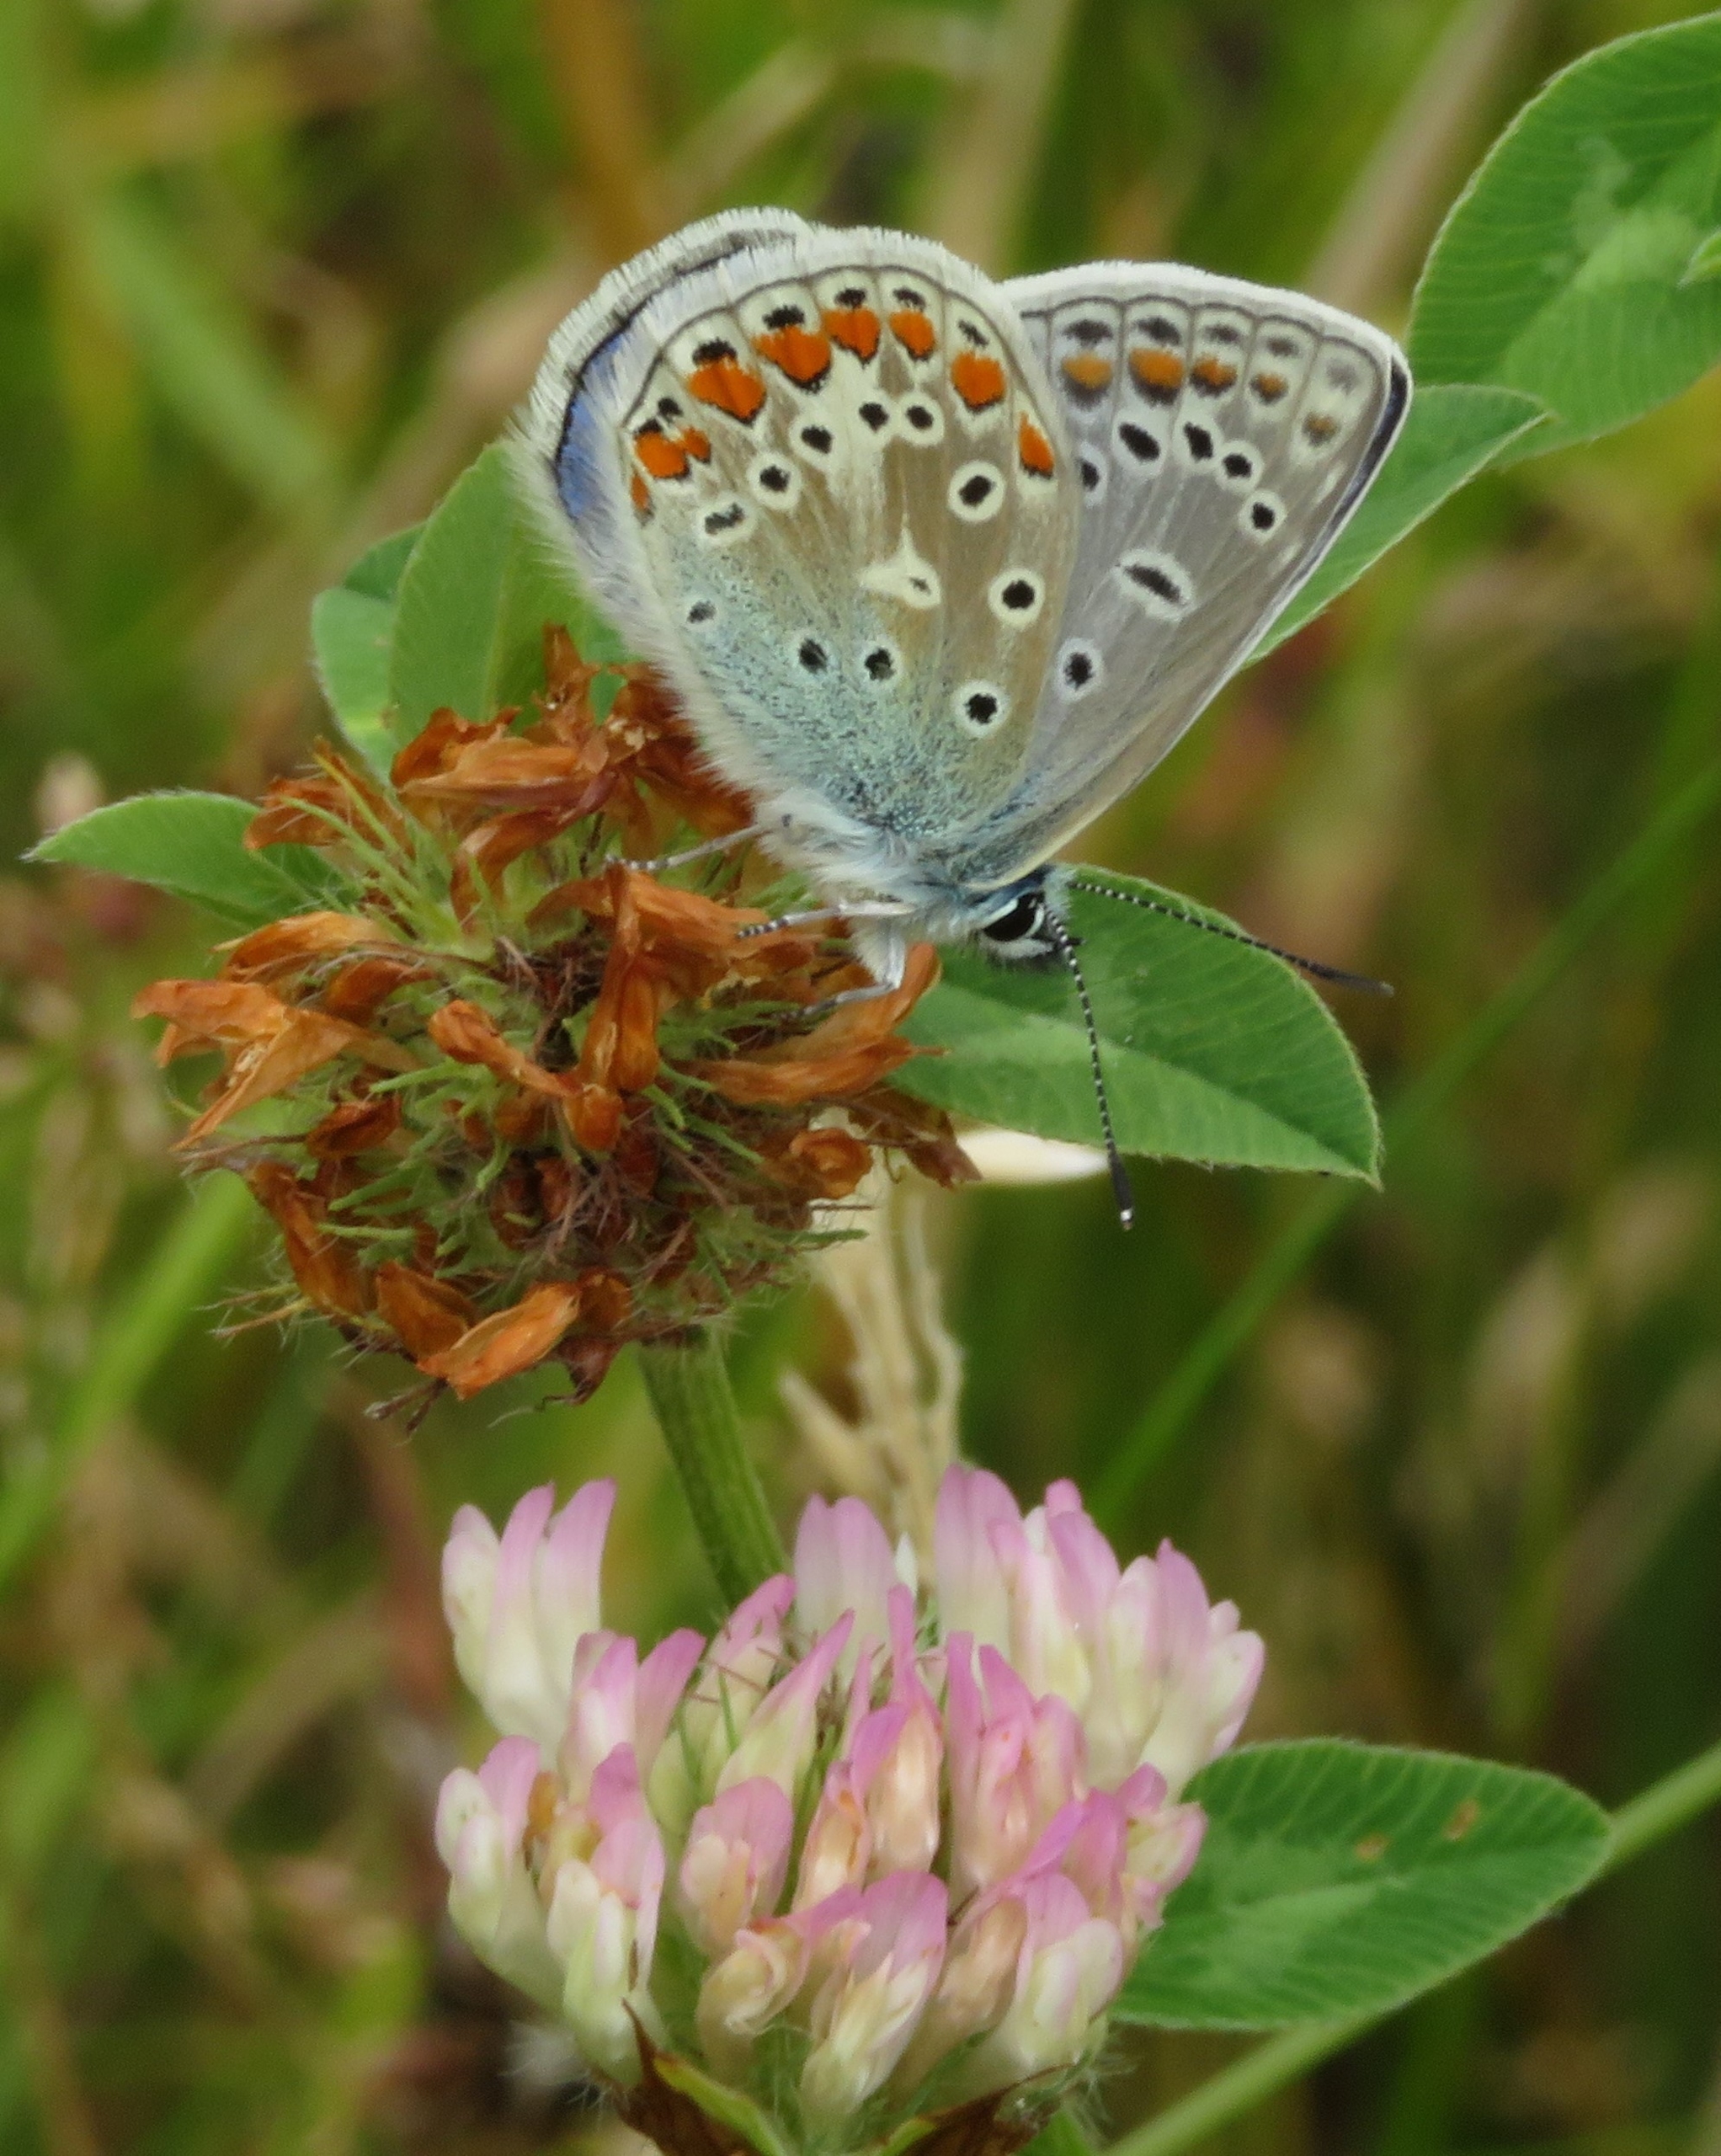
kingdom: Animalia
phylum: Arthropoda
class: Insecta
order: Lepidoptera
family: Lycaenidae
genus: Polyommatus
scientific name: Polyommatus icarus
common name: Almindelig blåfugl
